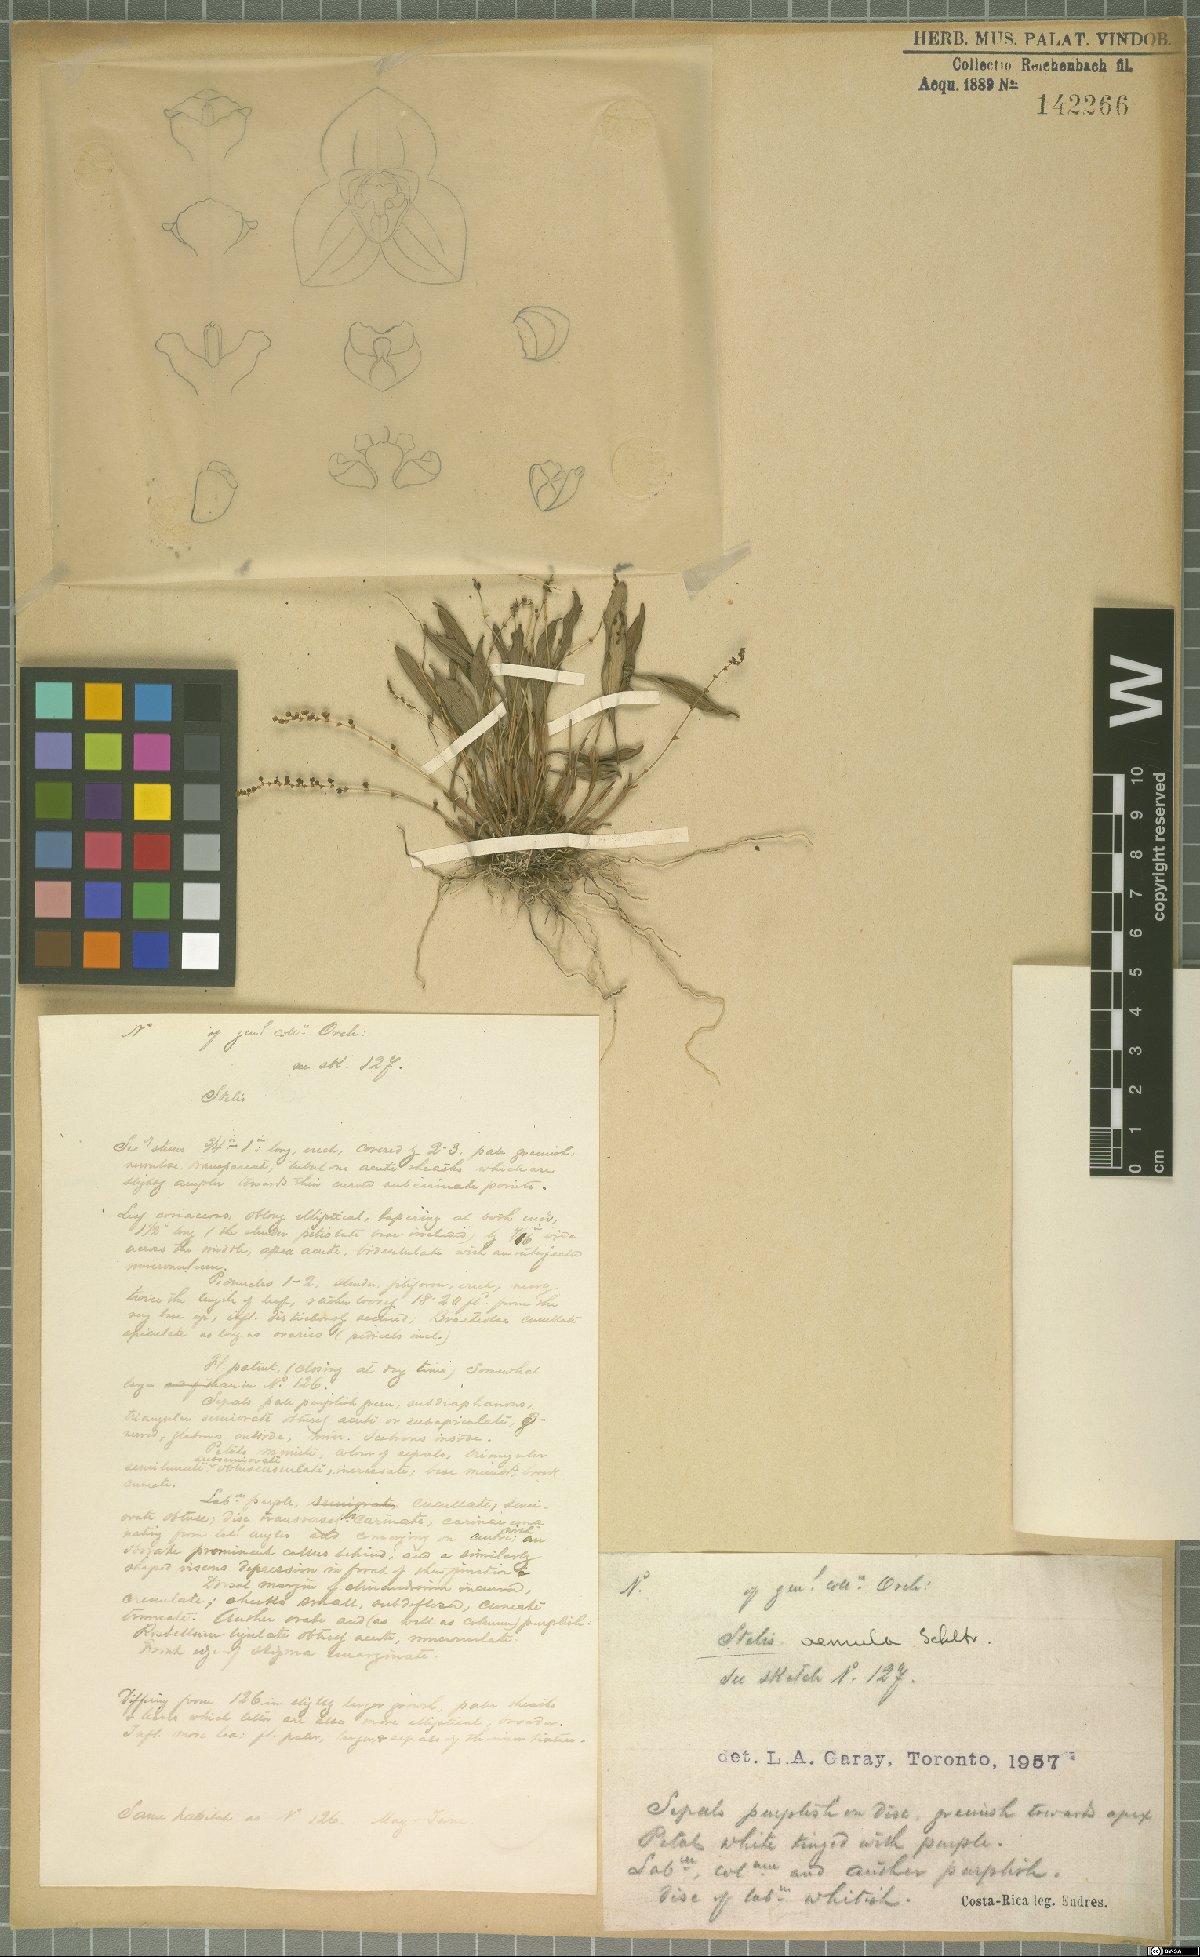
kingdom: Plantae
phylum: Tracheophyta
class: Liliopsida
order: Asparagales
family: Orchidaceae
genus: Stelis
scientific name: Stelis aemula
